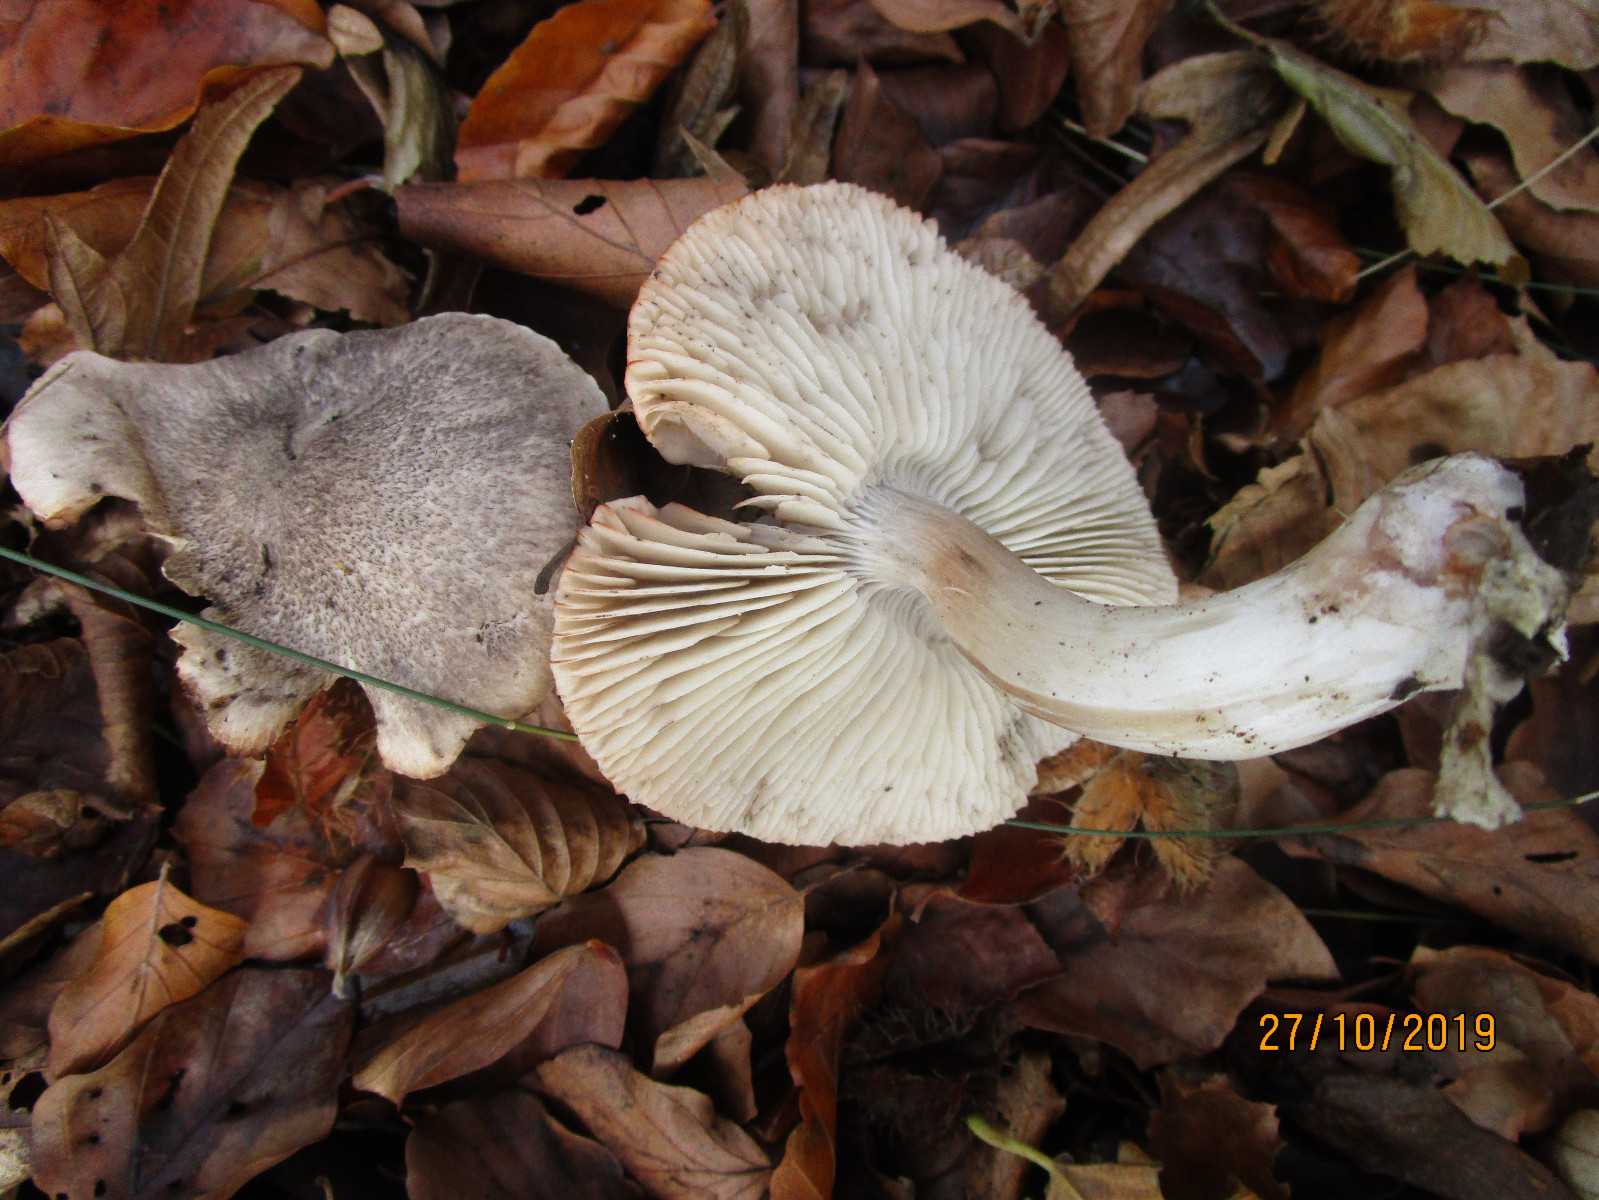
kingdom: Fungi
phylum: Basidiomycota
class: Agaricomycetes
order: Agaricales
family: Tricholomataceae
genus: Tricholoma
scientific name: Tricholoma orirubens
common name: rødbladet ridderhat
